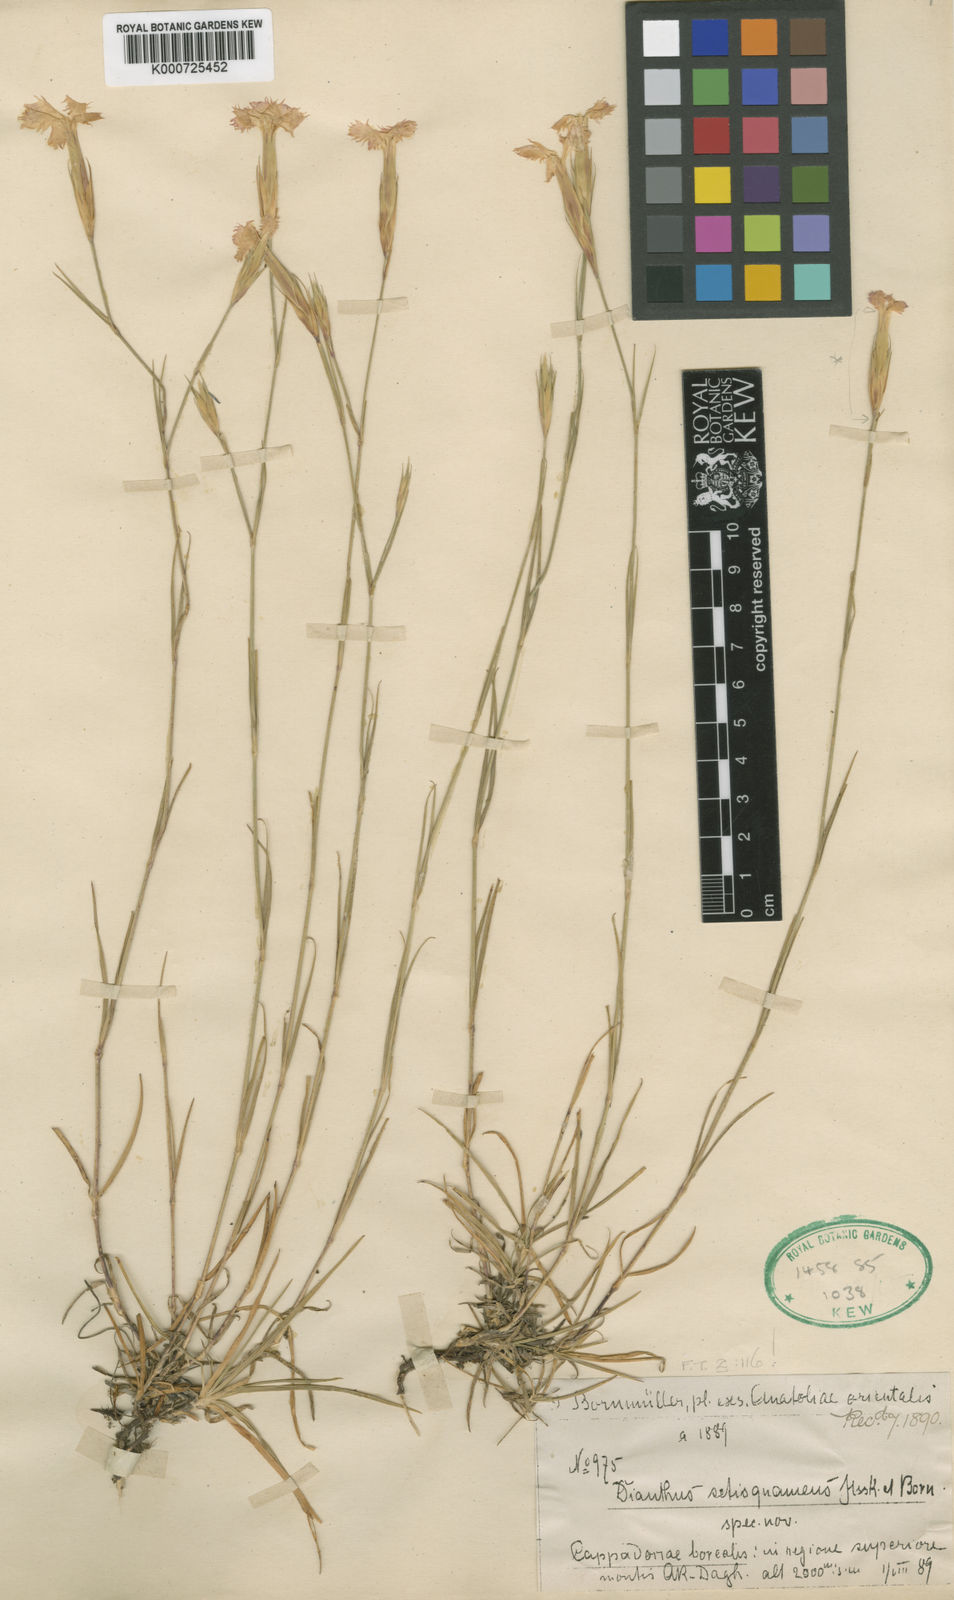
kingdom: Plantae
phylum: Tracheophyta
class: Magnoliopsida
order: Caryophyllales
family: Caryophyllaceae
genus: Dianthus
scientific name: Dianthus setisquameus
